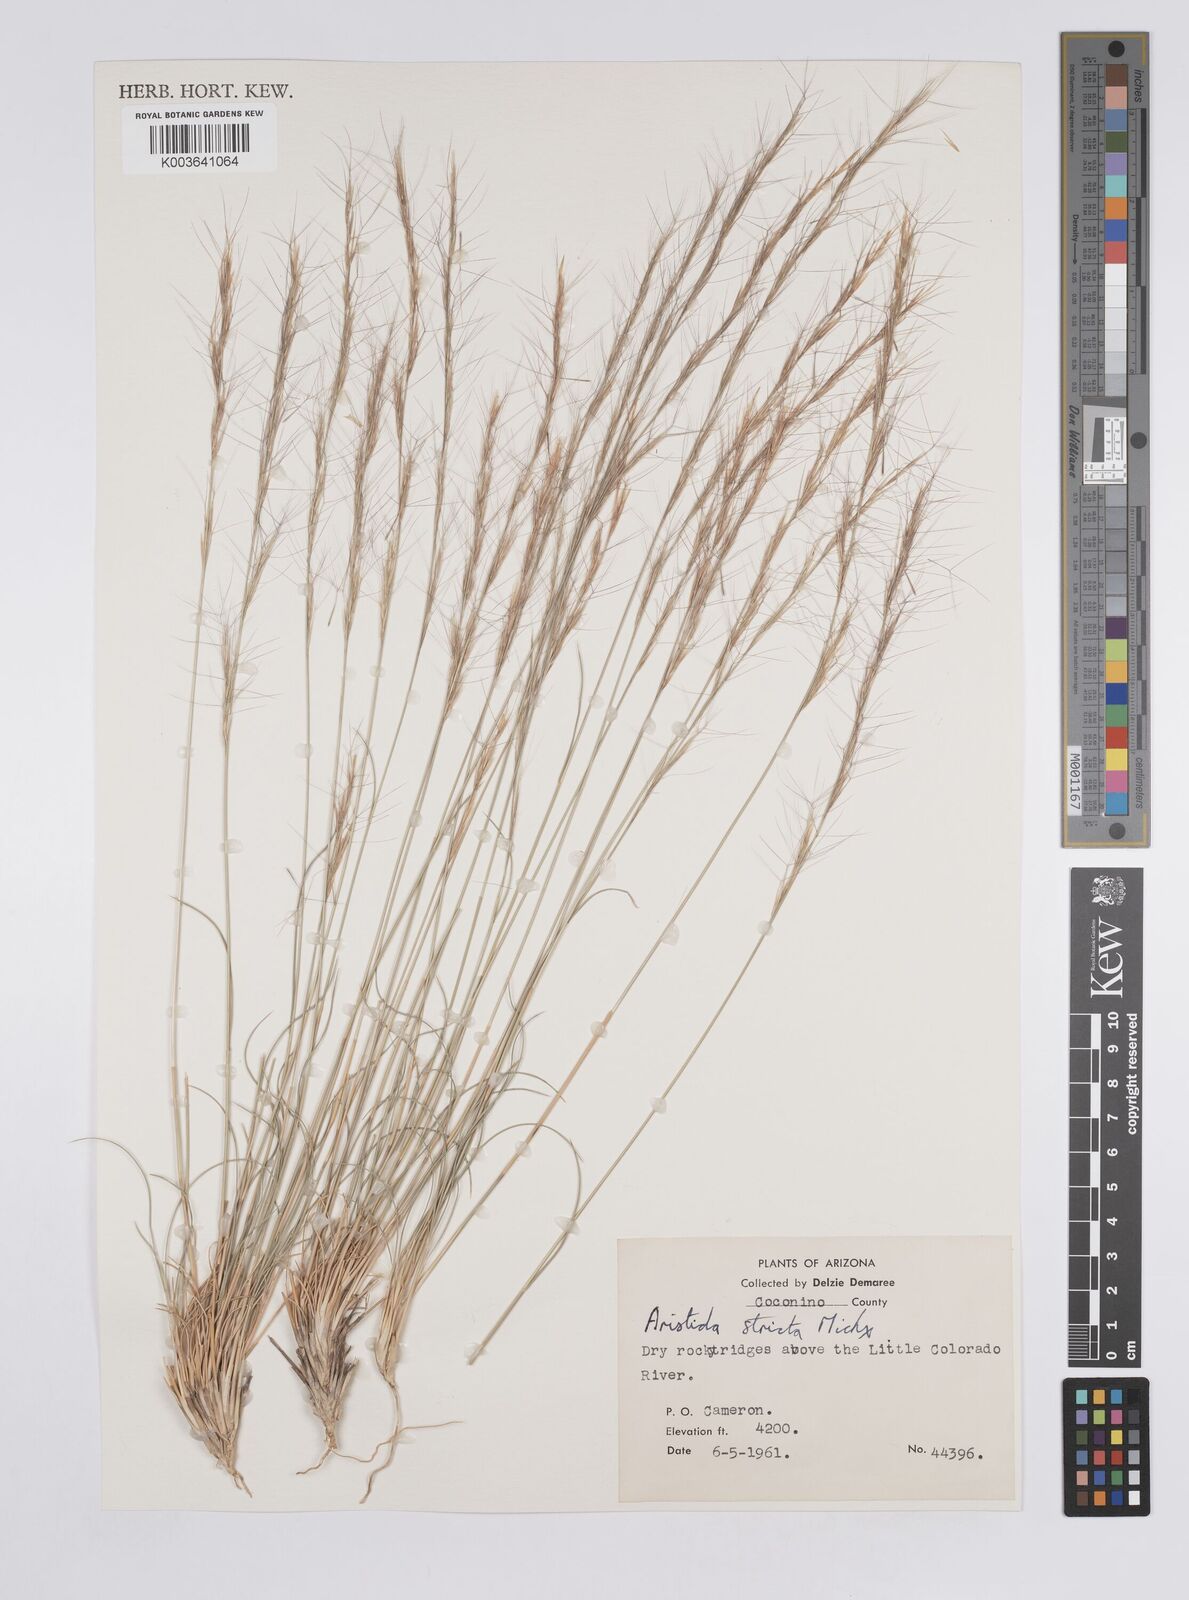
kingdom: Plantae
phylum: Tracheophyta
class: Liliopsida
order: Poales
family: Poaceae
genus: Aristida
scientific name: Aristida stricta
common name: Pineland three-awn
